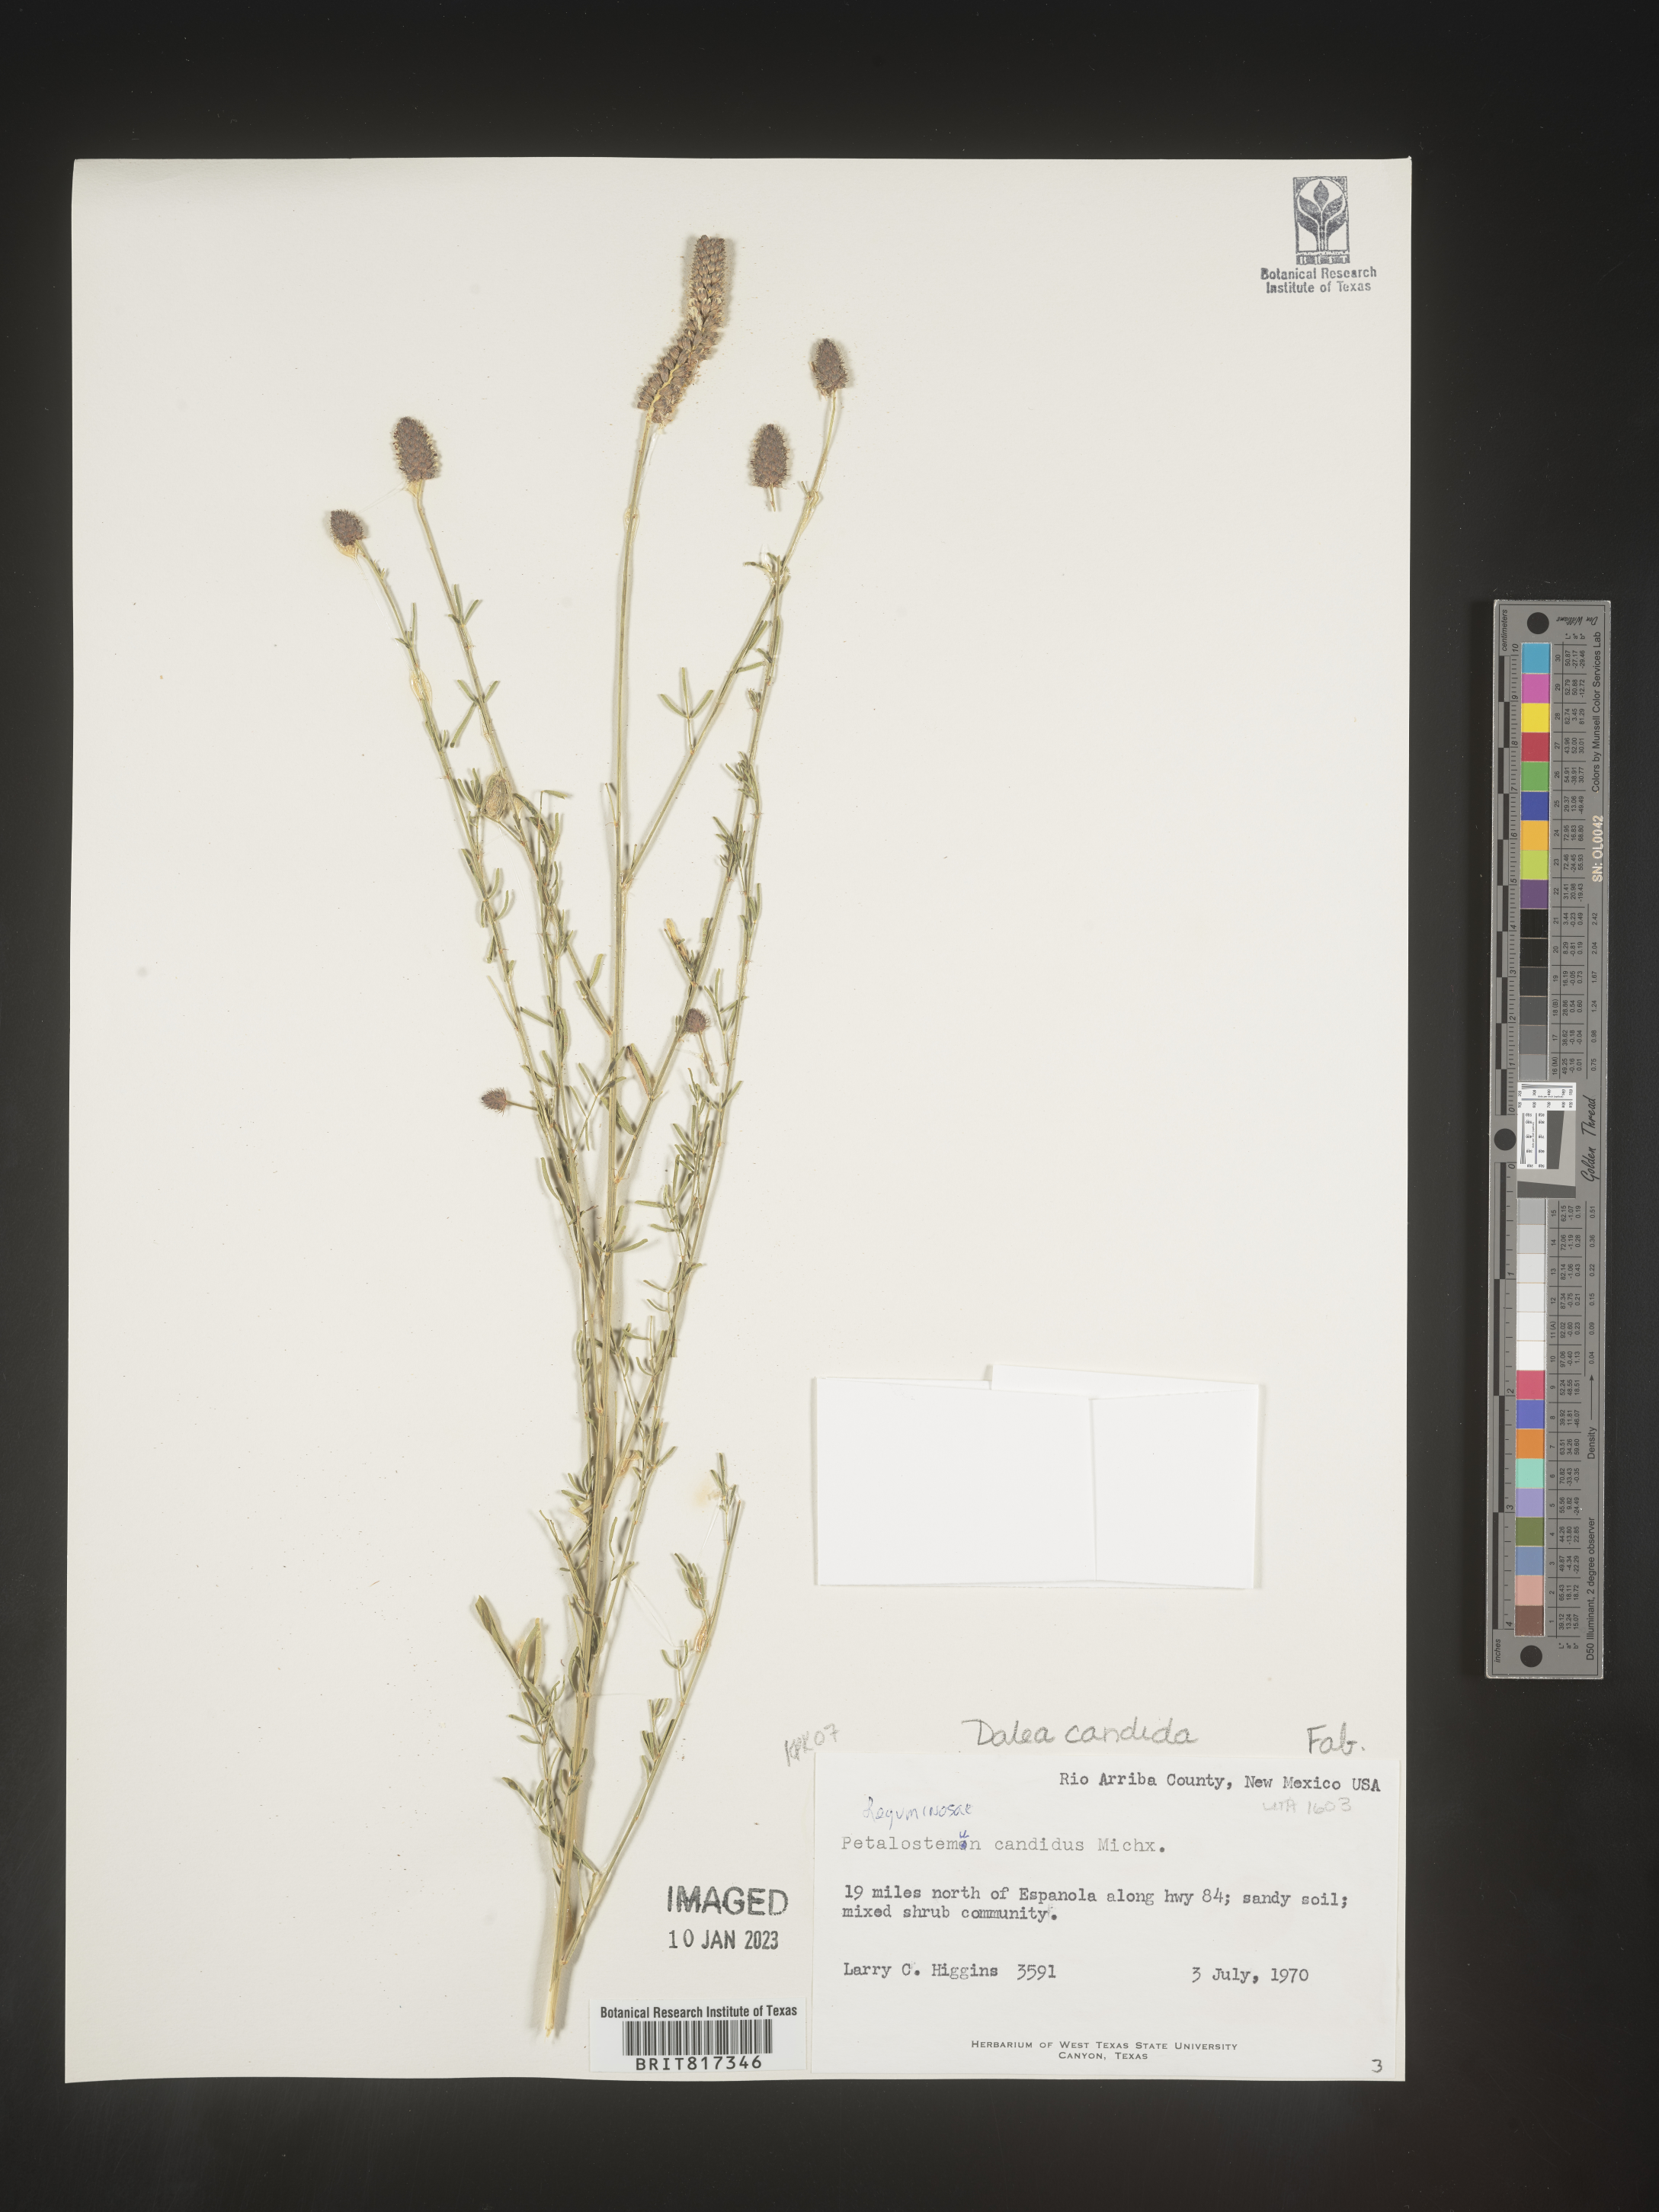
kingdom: Plantae
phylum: Tracheophyta
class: Magnoliopsida
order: Fabales
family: Fabaceae
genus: Dalea
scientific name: Dalea candida
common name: White prairie-clover
